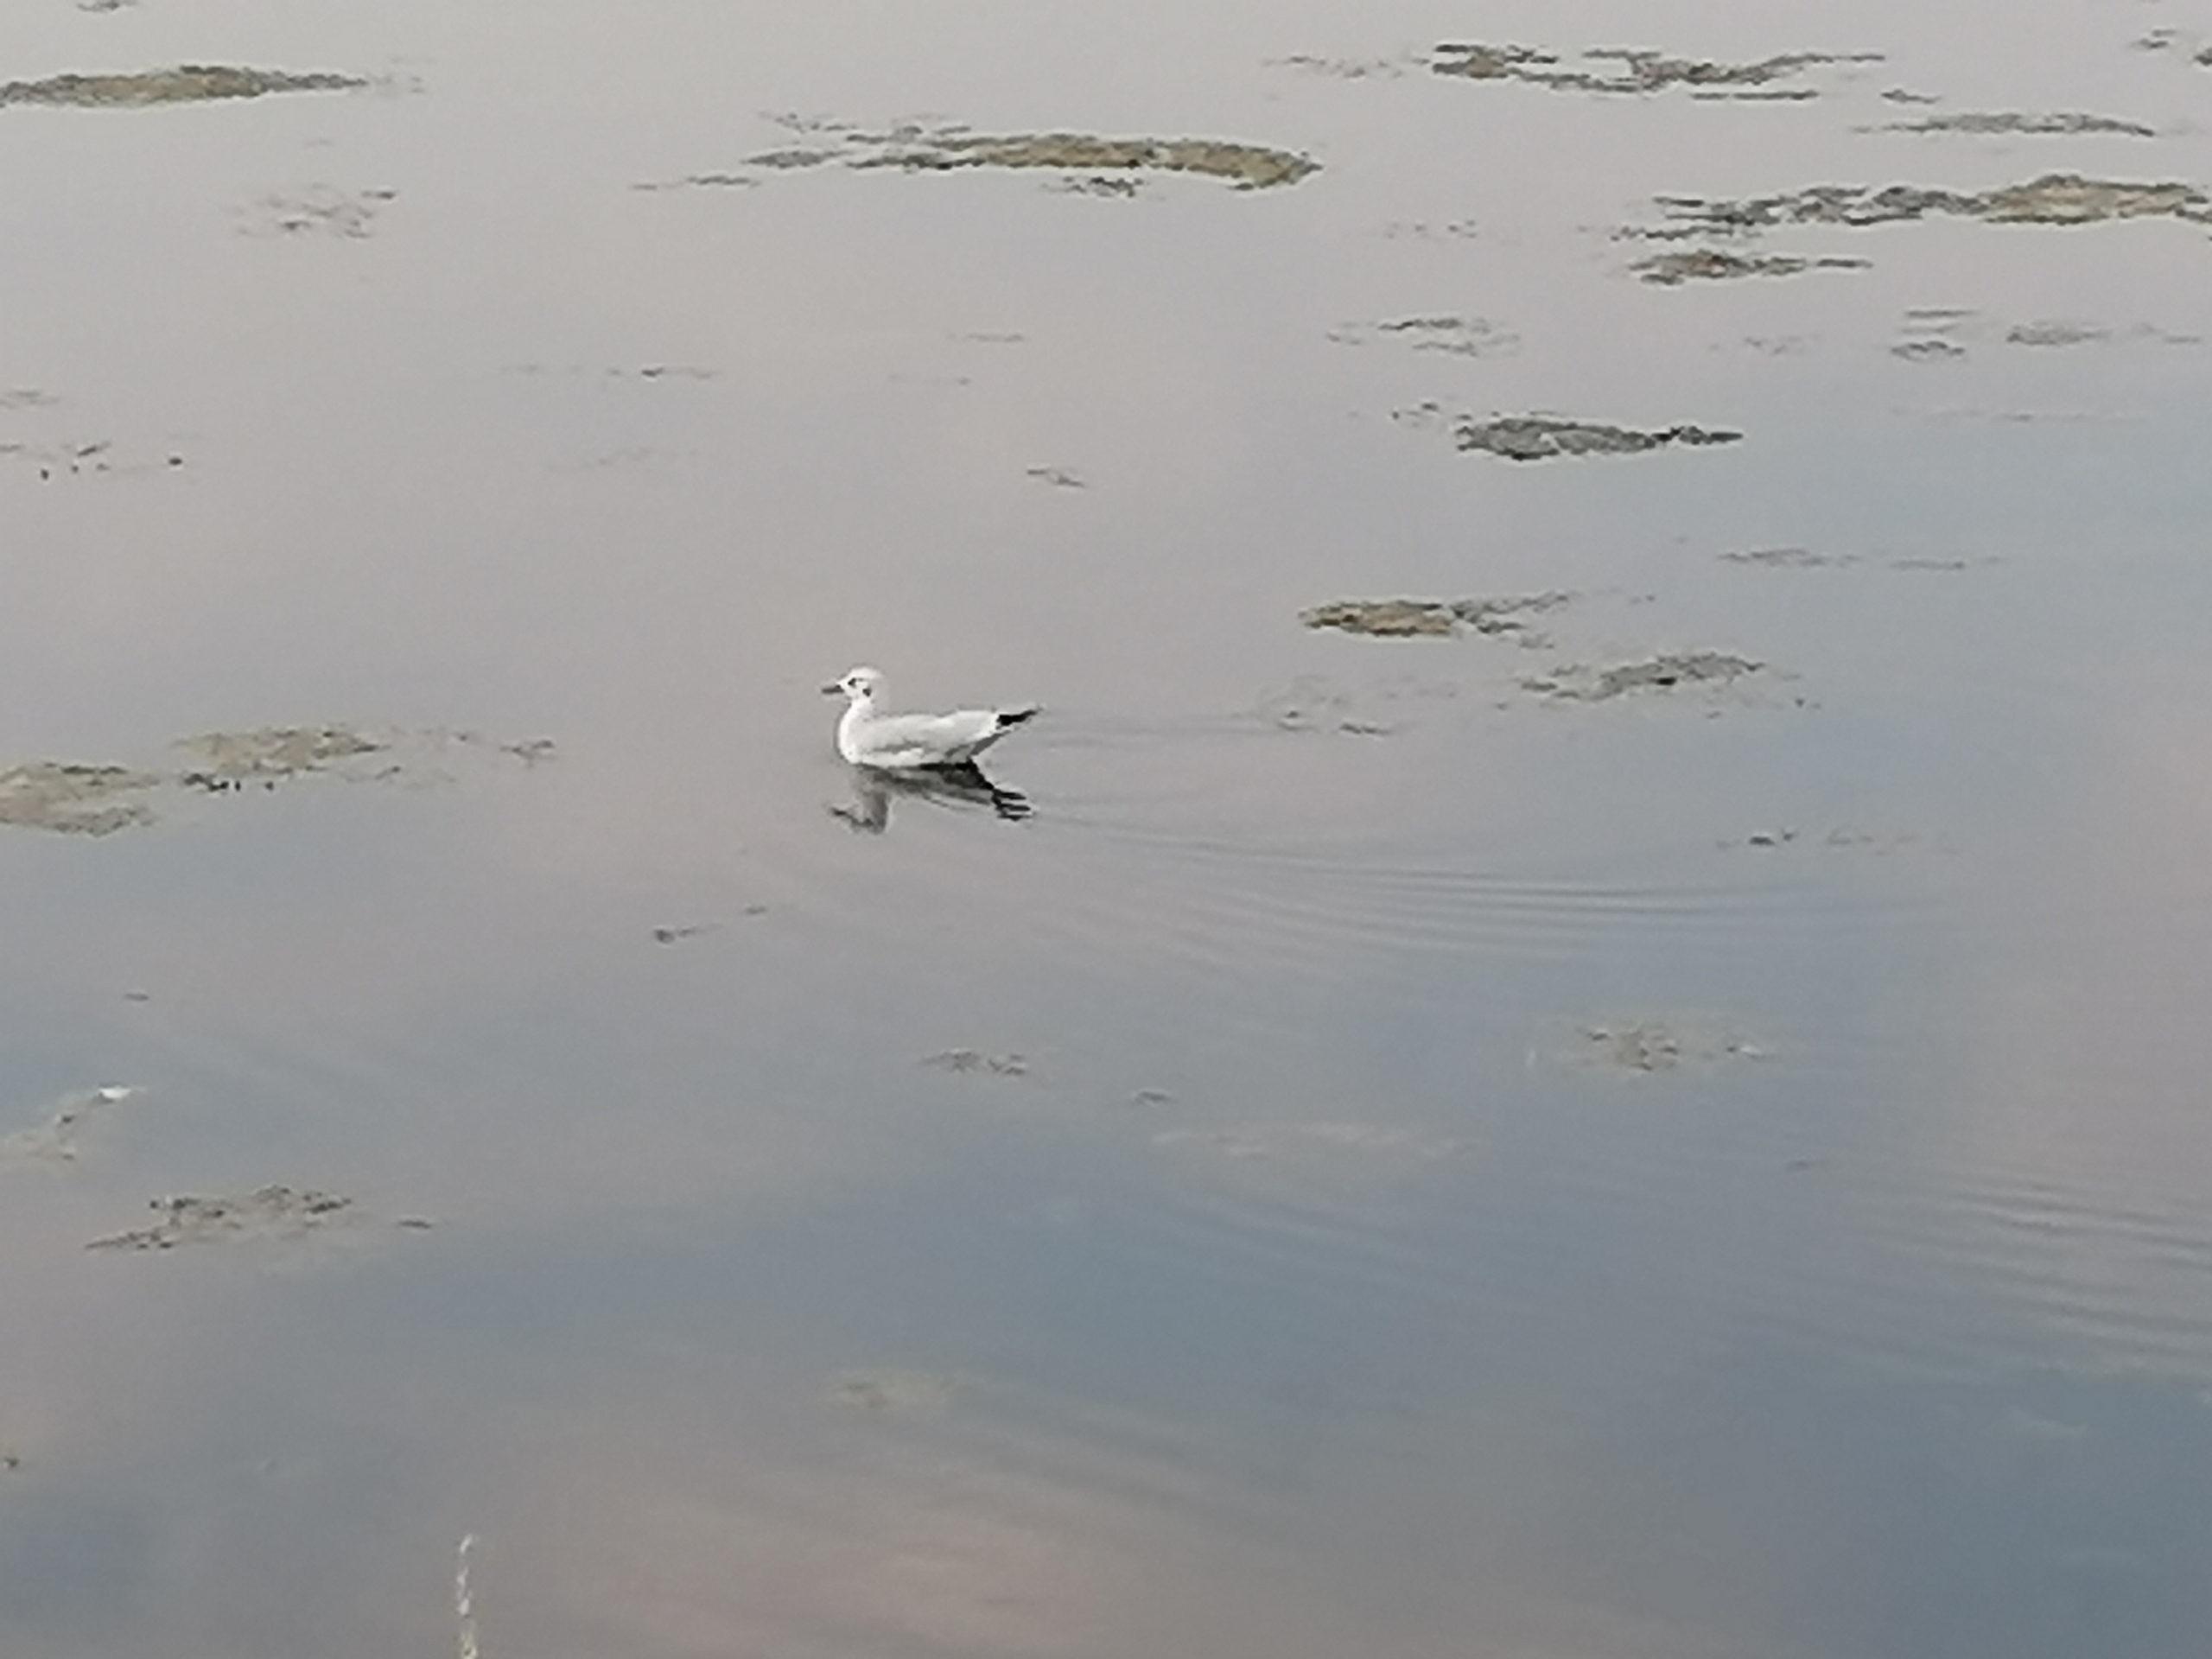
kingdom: Animalia
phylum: Chordata
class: Aves
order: Charadriiformes
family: Laridae
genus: Chroicocephalus
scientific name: Chroicocephalus ridibundus
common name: Hættemåge
